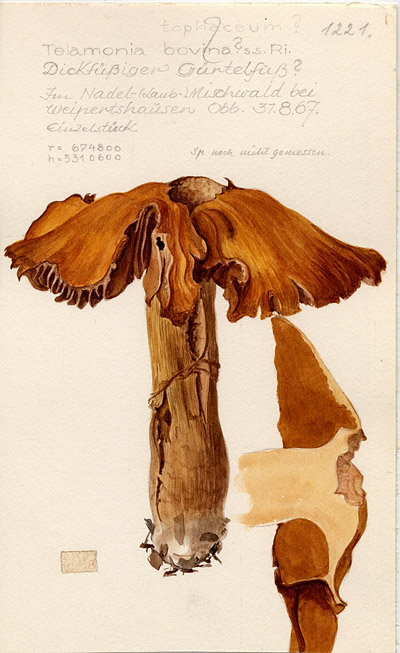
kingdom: Fungi
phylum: Basidiomycota
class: Agaricomycetes
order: Agaricales
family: Cortinariaceae
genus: Cortinarius
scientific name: Cortinarius bovinus
